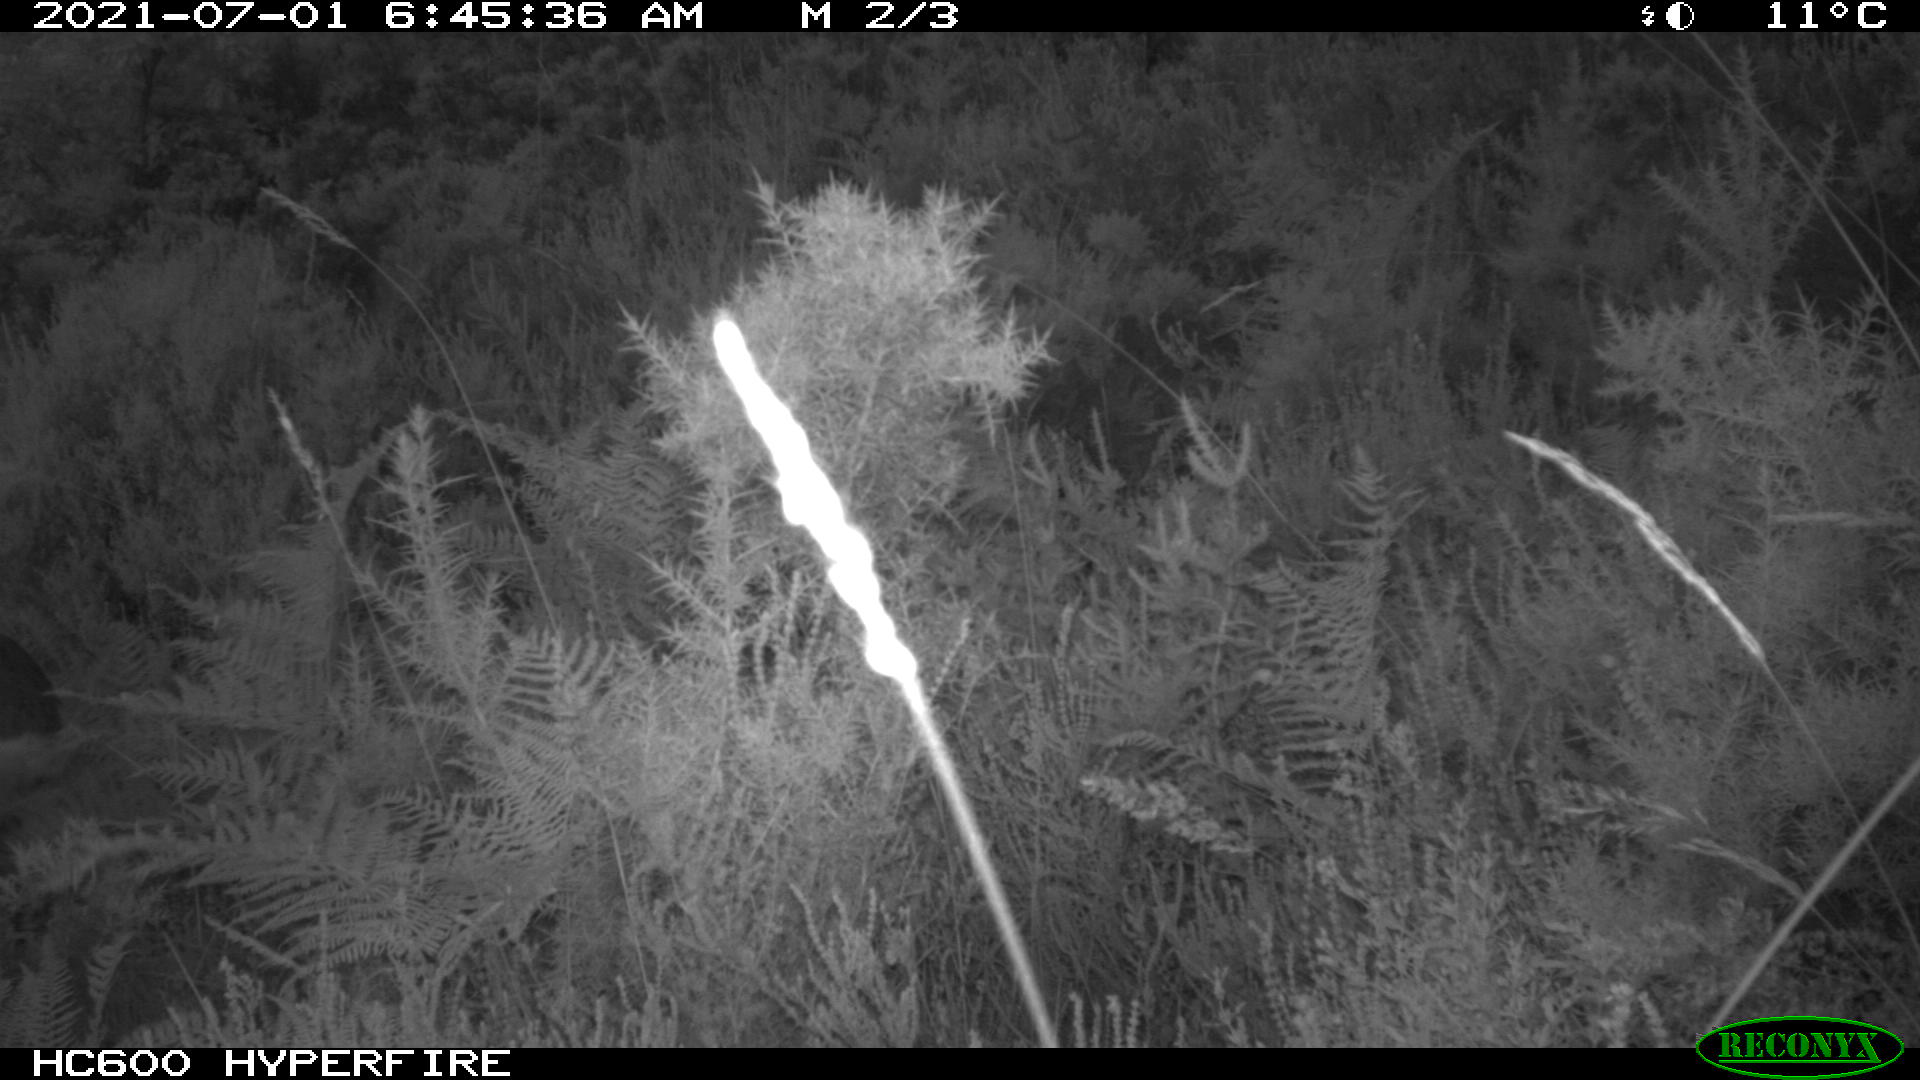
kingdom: Animalia
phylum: Chordata
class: Mammalia
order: Artiodactyla
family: Cervidae
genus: Capreolus
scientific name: Capreolus capreolus
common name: Western roe deer
